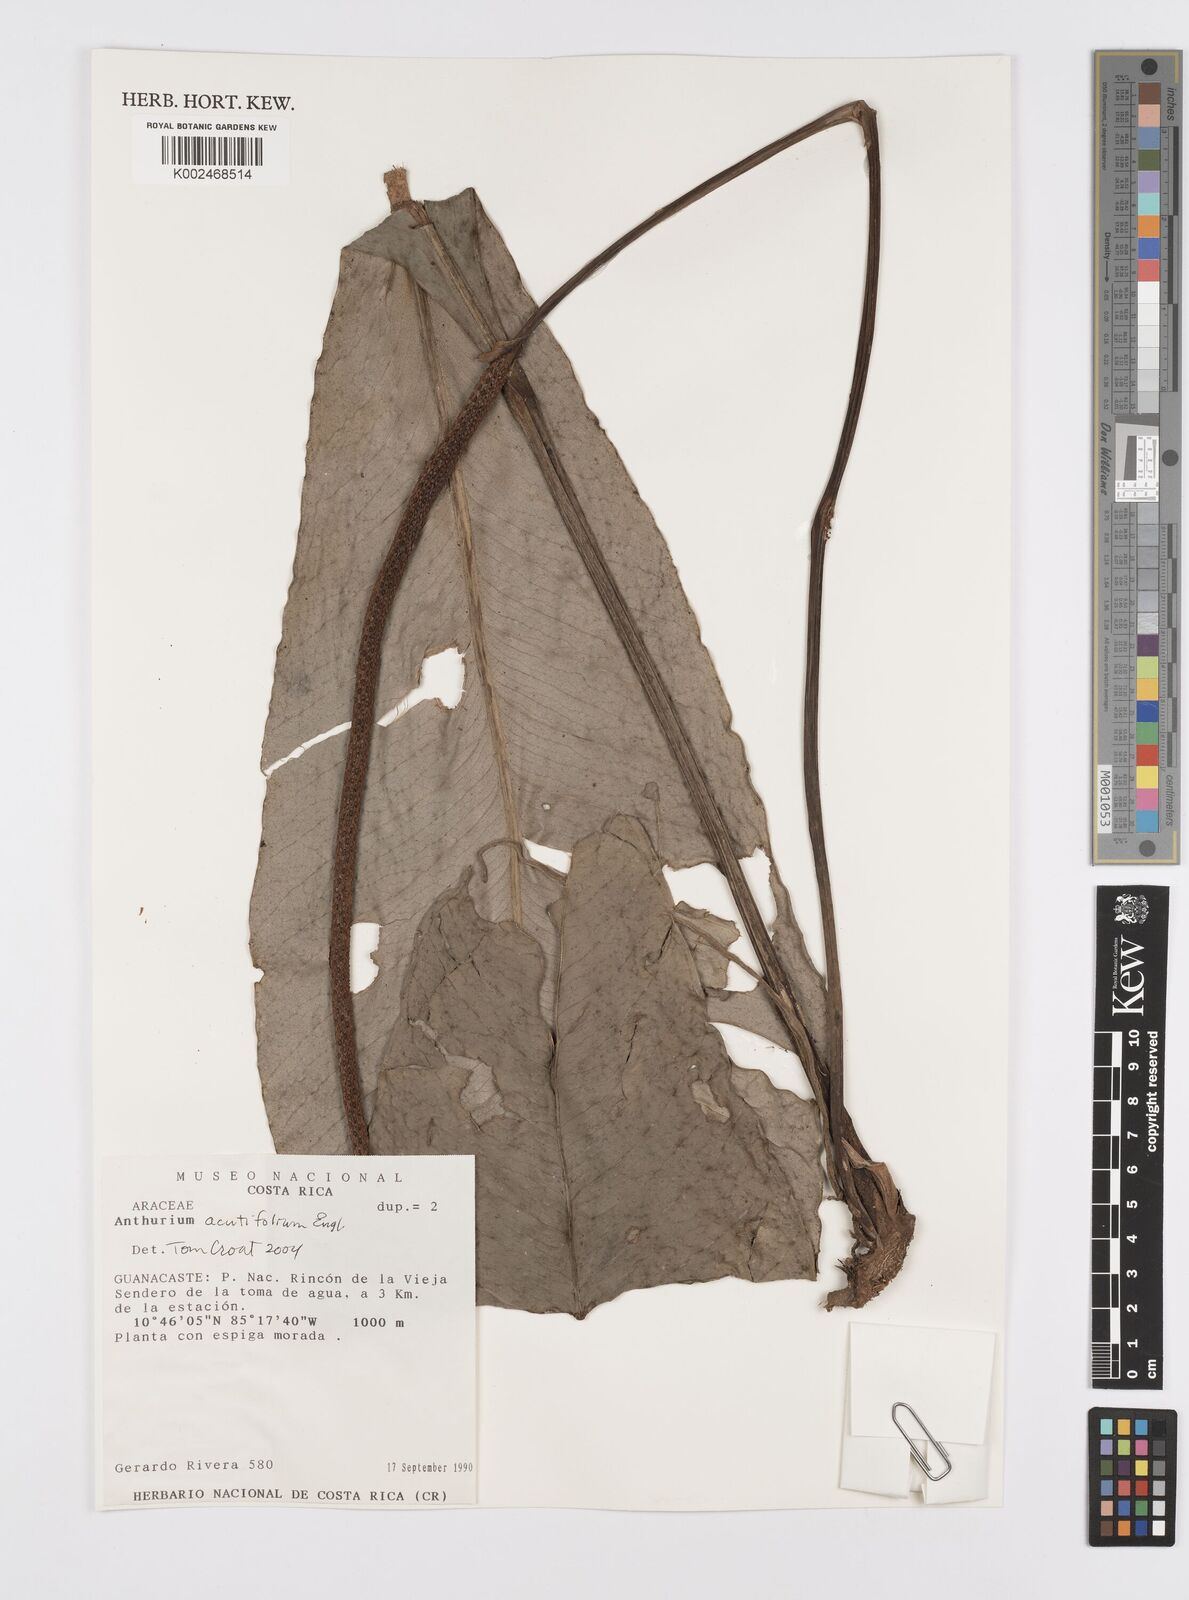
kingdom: Plantae
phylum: Tracheophyta
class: Liliopsida
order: Alismatales
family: Araceae
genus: Anthurium
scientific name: Anthurium acutifolium
